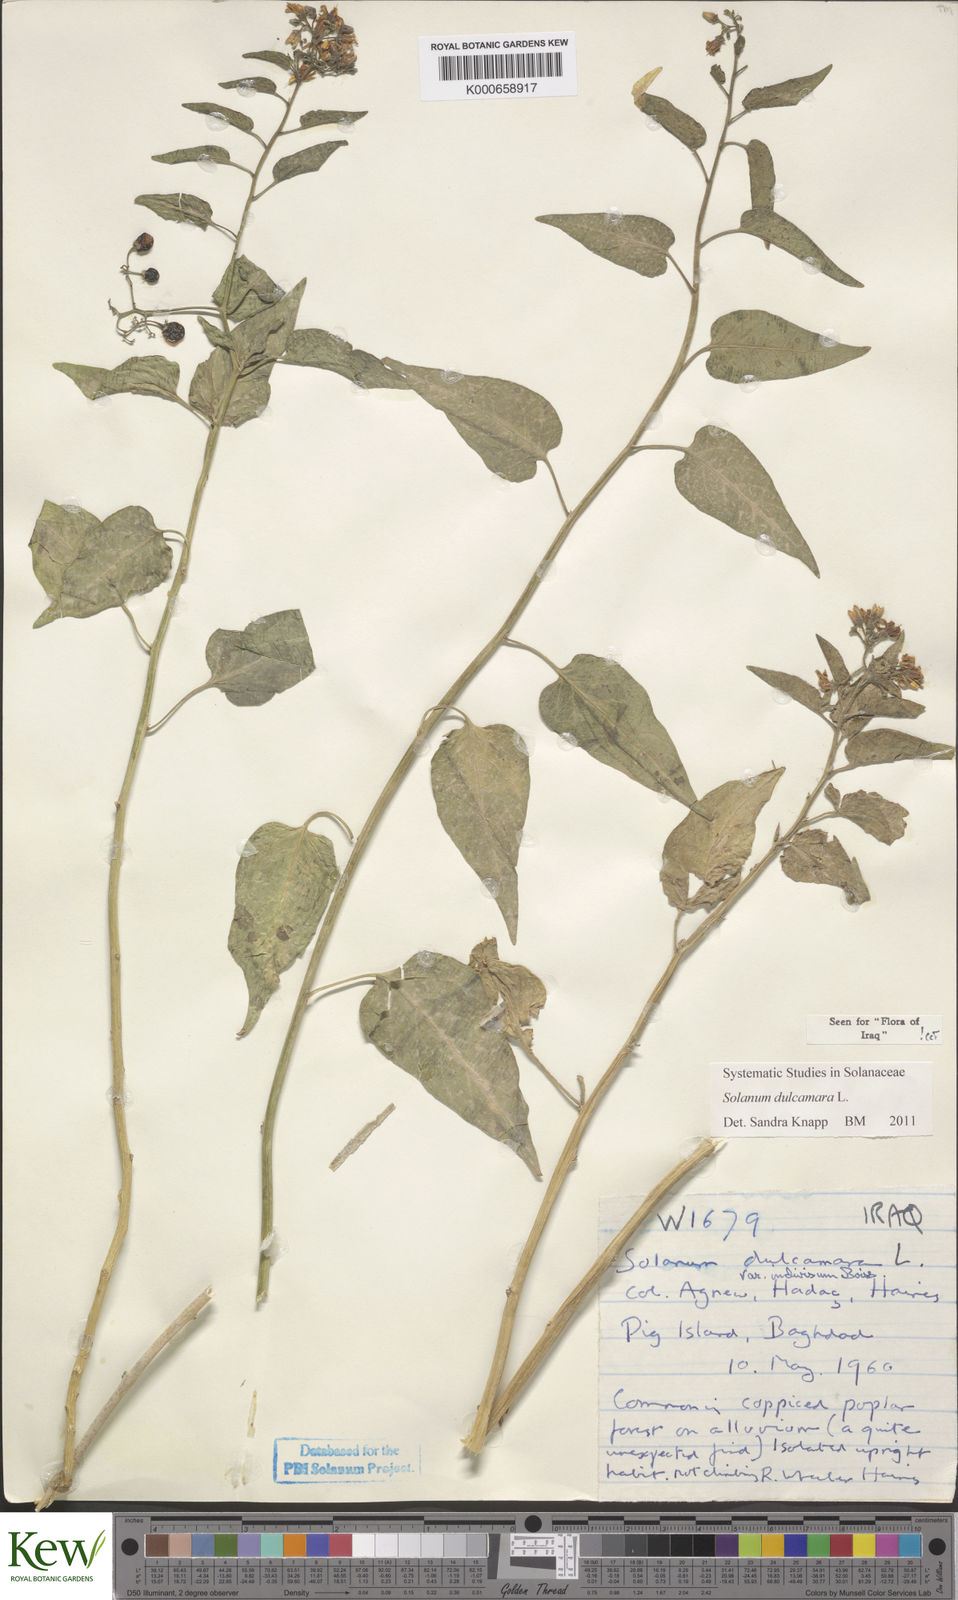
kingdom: Plantae
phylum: Tracheophyta
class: Magnoliopsida
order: Solanales
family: Solanaceae
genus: Solanum
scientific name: Solanum dulcamara
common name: Climbing nightshade
